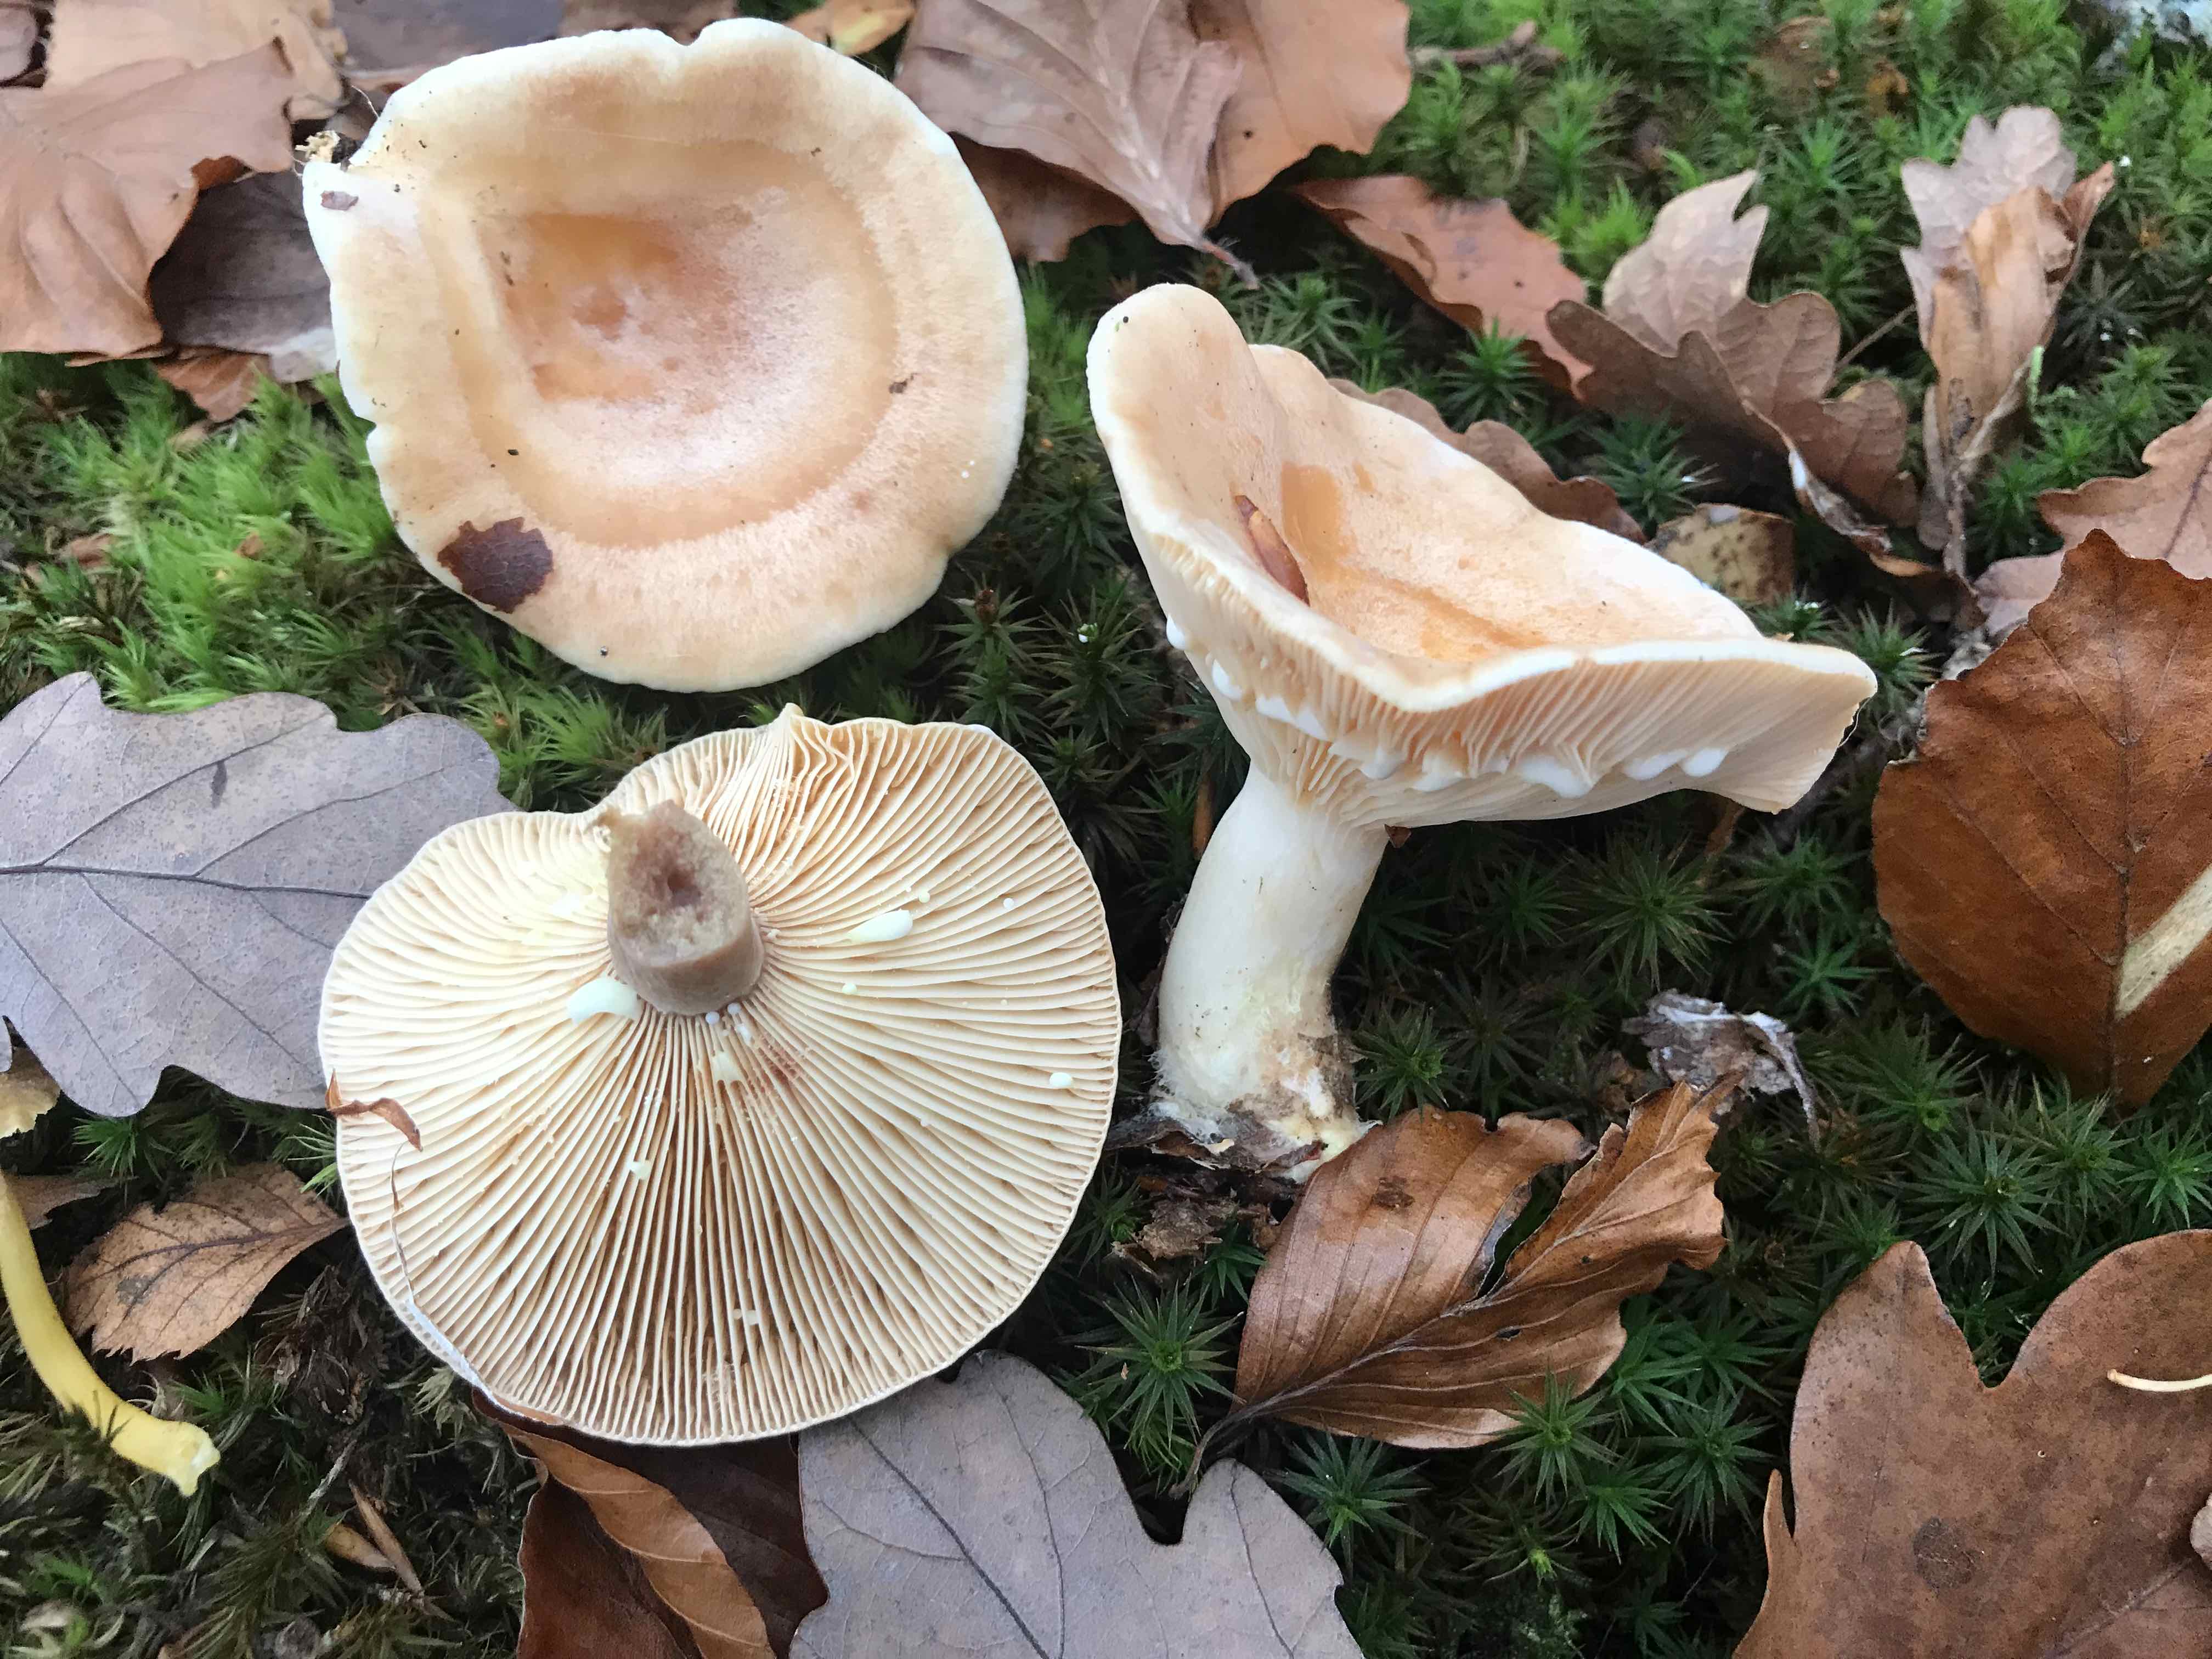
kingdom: Fungi
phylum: Basidiomycota
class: Agaricomycetes
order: Russulales
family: Russulaceae
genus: Lactarius
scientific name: Lactarius chrysorrheus
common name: svovlmælket mælkehat
